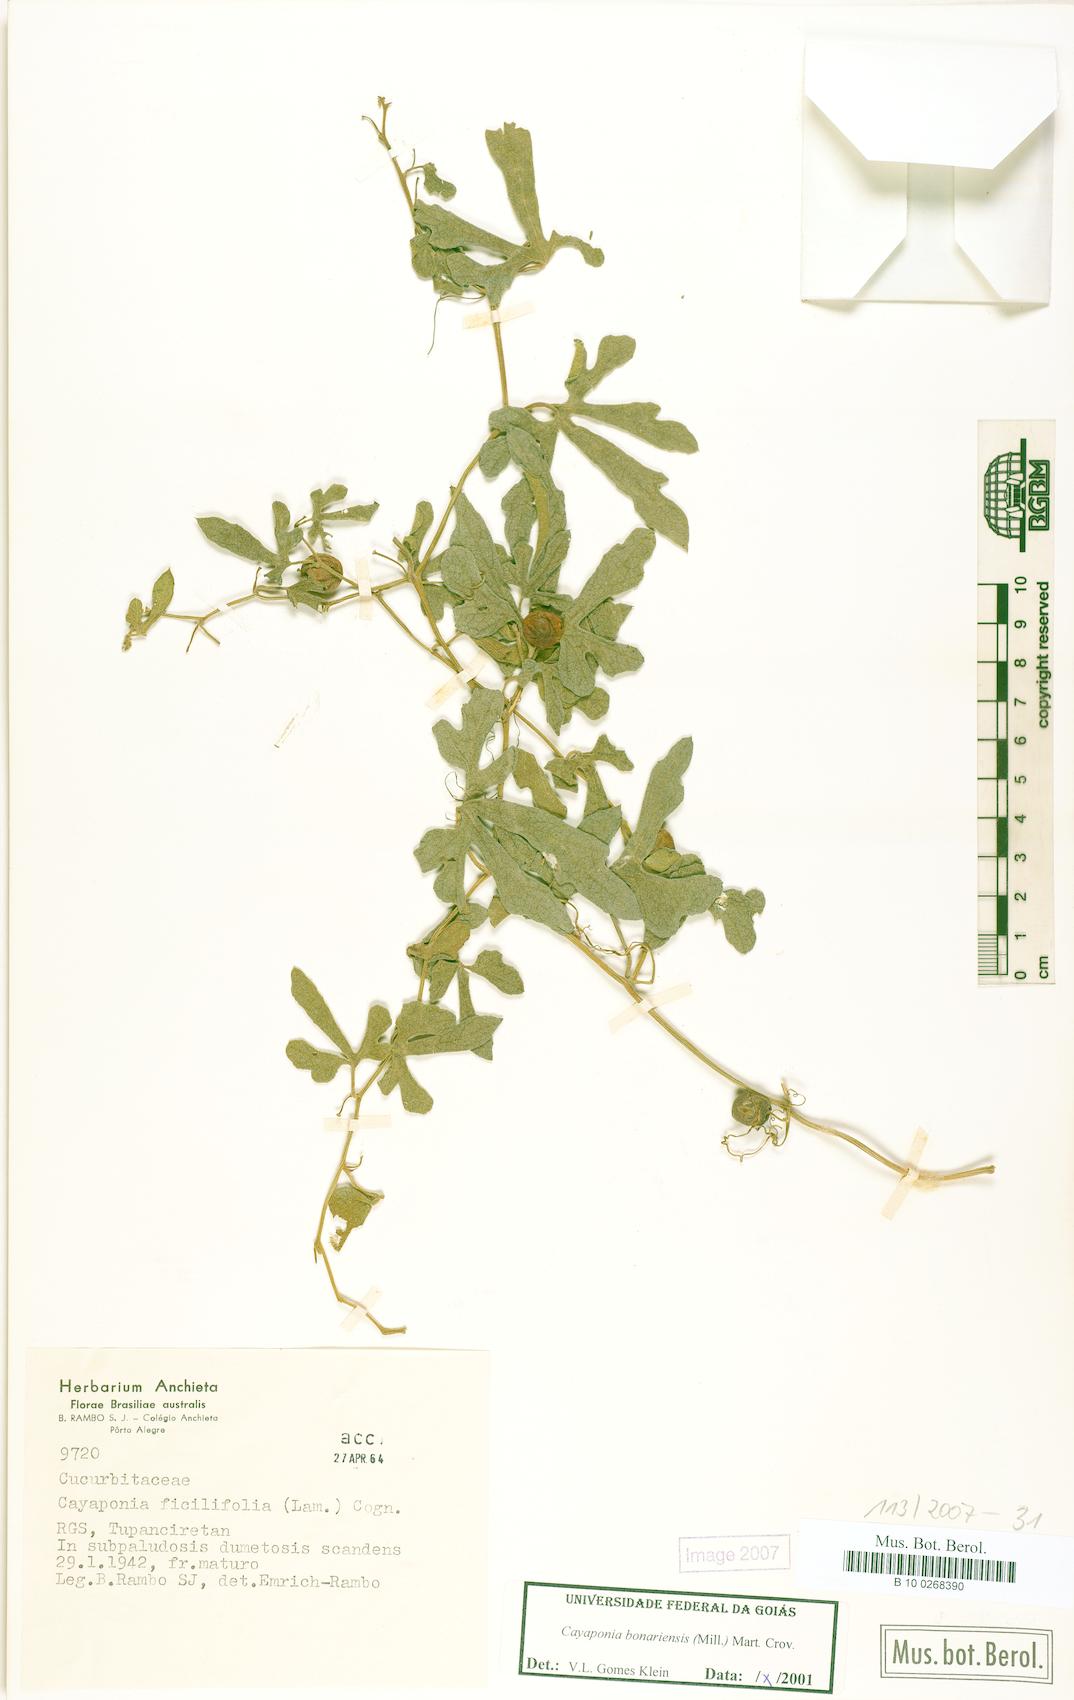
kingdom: Plantae
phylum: Tracheophyta
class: Magnoliopsida
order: Cucurbitales
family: Cucurbitaceae
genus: Cayaponia
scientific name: Cayaponia bonariensis
